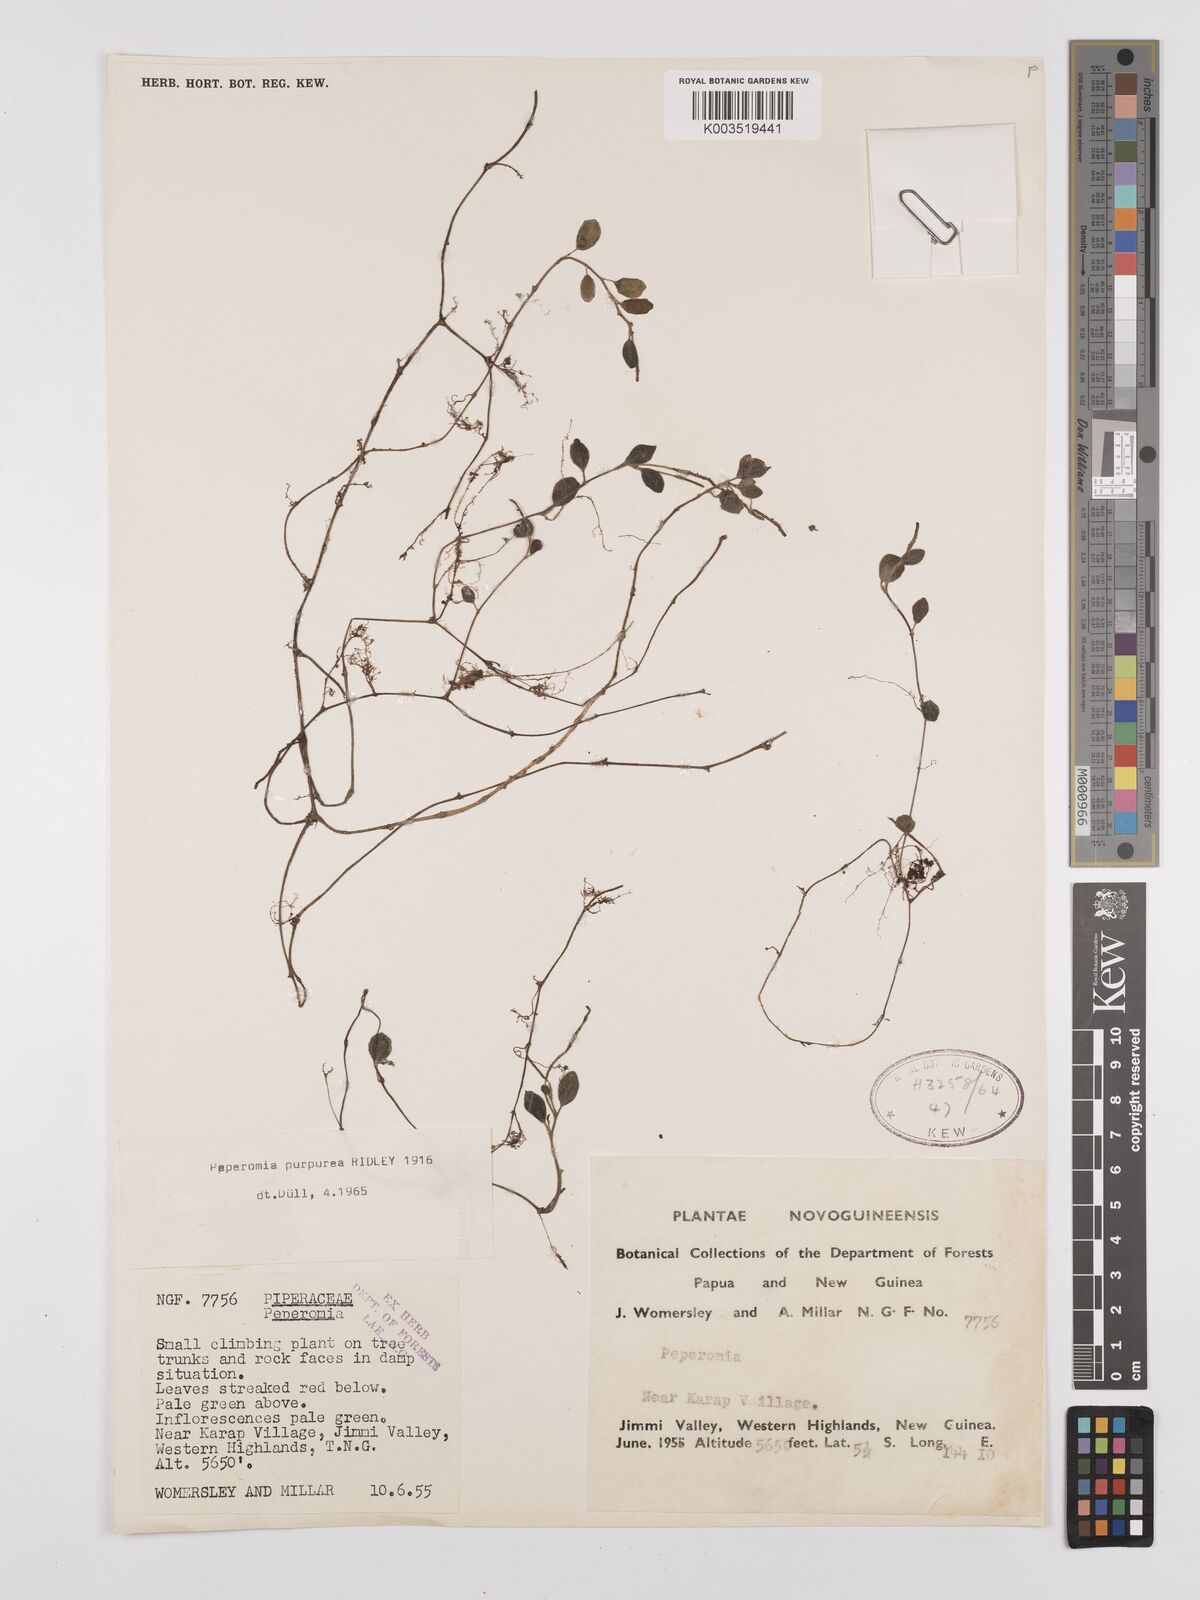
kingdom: Plantae
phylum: Tracheophyta
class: Magnoliopsida
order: Piperales
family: Piperaceae
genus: Peperomia
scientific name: Peperomia colossina
